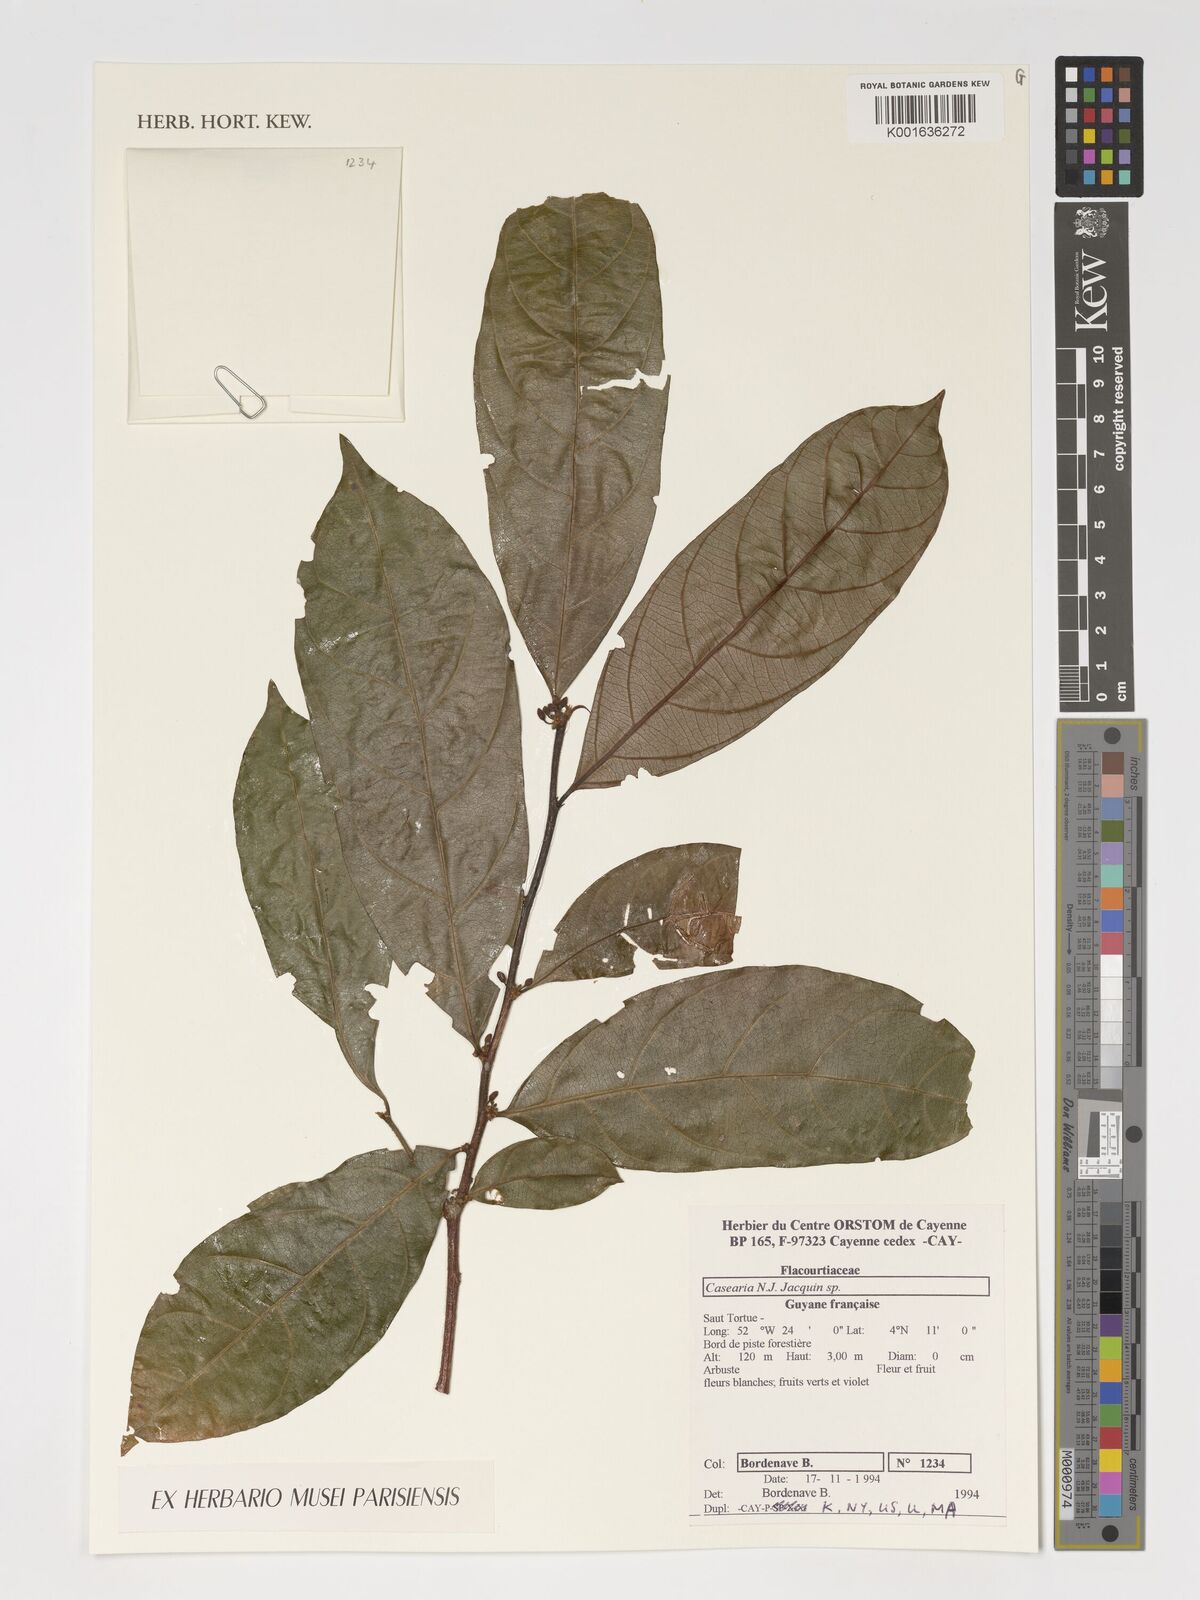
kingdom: Plantae
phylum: Tracheophyta
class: Magnoliopsida
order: Malpighiales
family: Salicaceae
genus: Casearia
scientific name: Casearia
